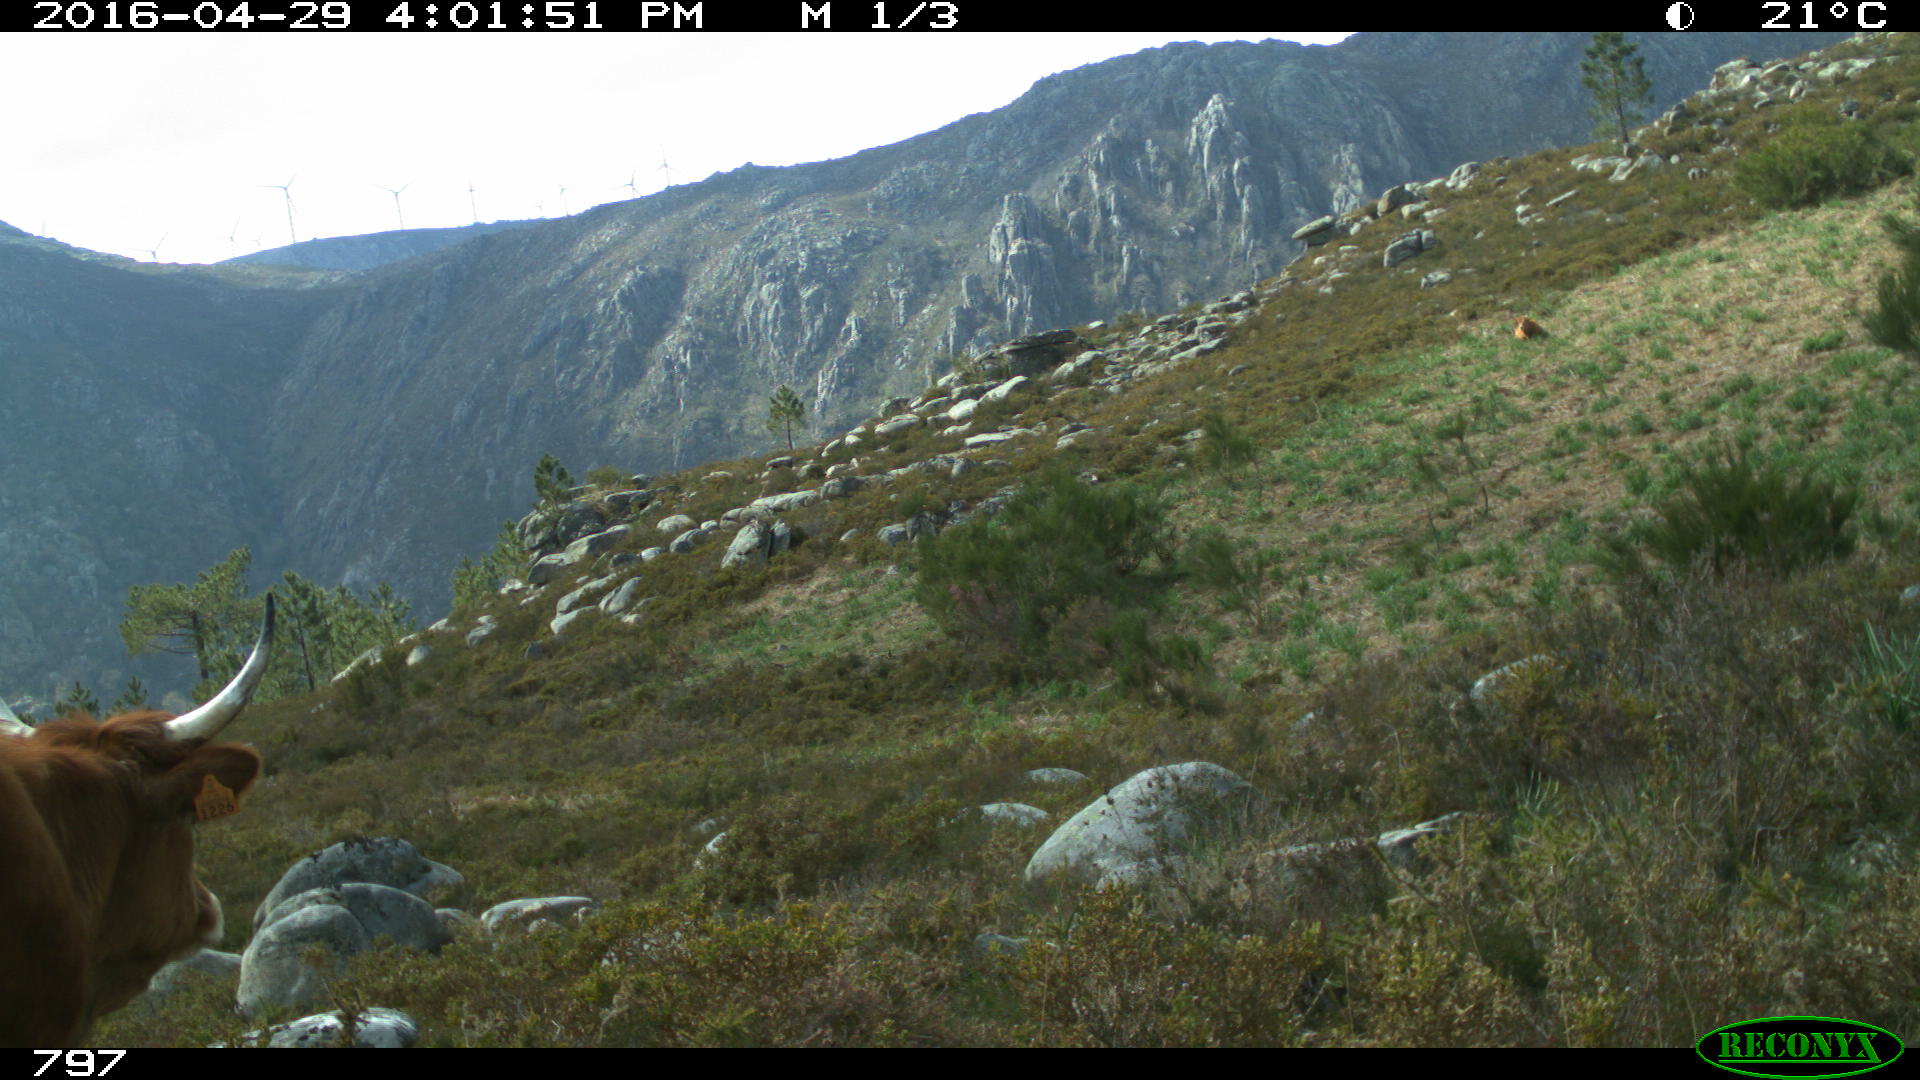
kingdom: Animalia
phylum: Chordata
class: Mammalia
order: Artiodactyla
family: Bovidae
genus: Bos
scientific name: Bos taurus
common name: Domesticated cattle
